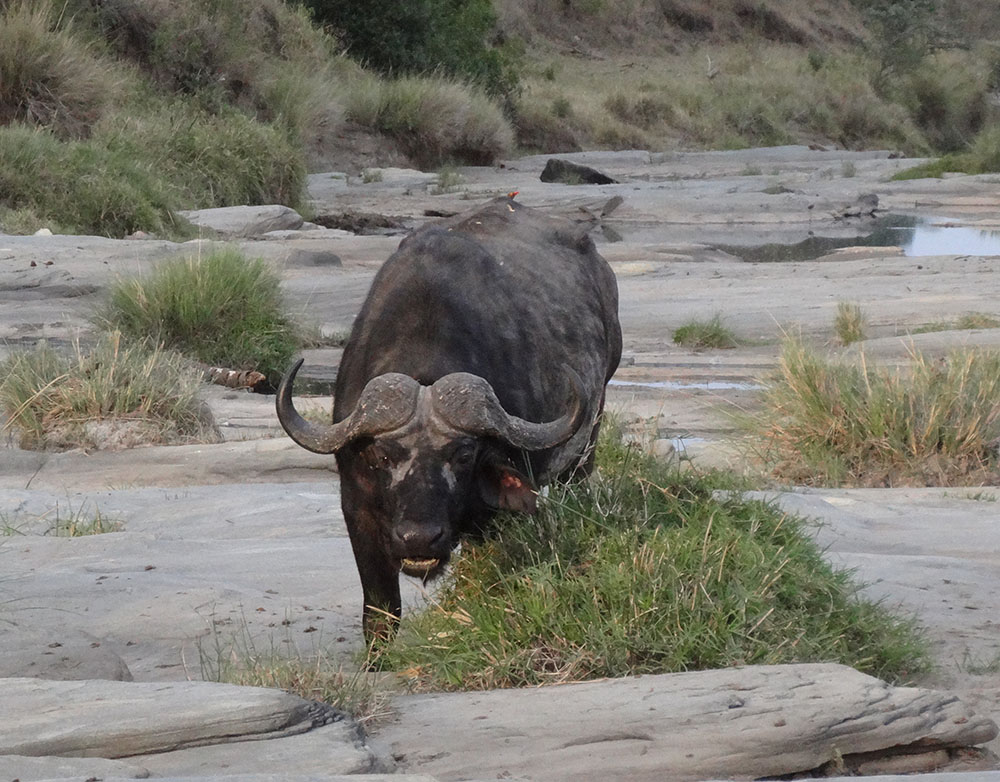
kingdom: Animalia
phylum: Chordata
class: Mammalia
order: Artiodactyla
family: Bovidae
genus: Syncerus
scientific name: Syncerus caffer
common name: African buffalo
